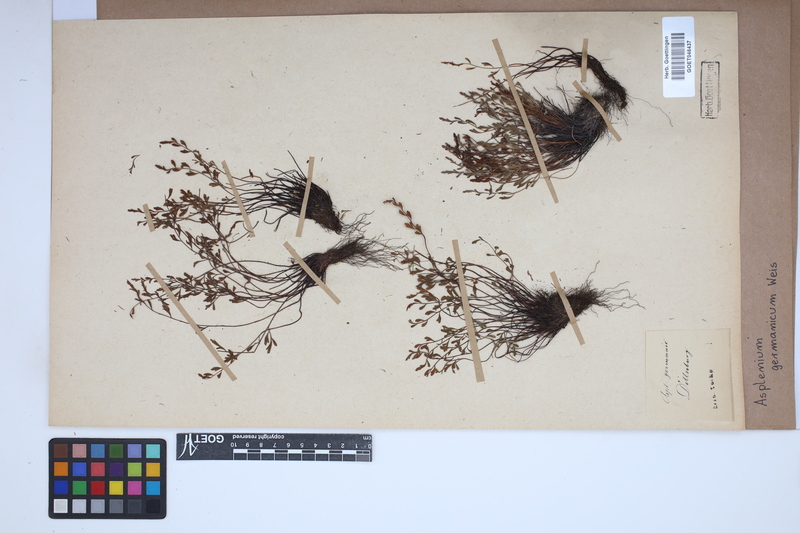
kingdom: Plantae
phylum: Tracheophyta
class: Polypodiopsida
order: Polypodiales
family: Aspleniaceae
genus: Asplenium
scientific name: Asplenium
